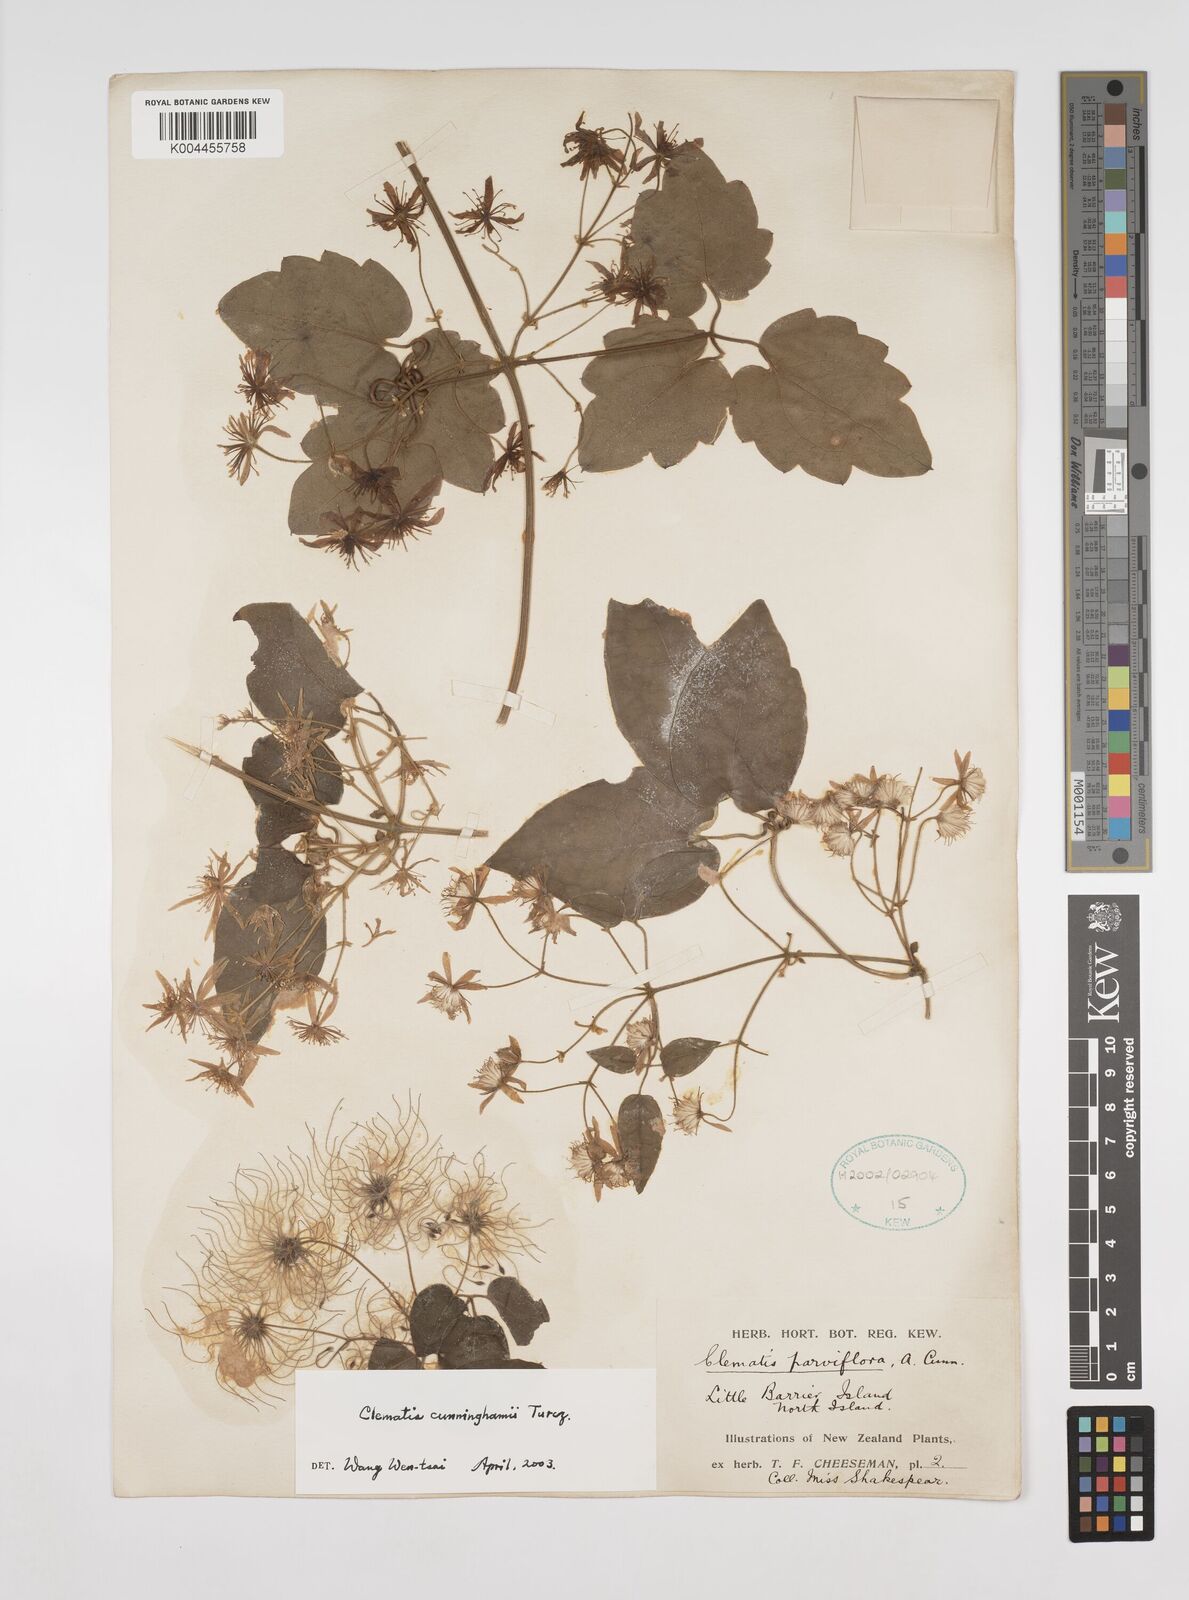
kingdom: Plantae
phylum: Tracheophyta
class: Magnoliopsida
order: Ranunculales
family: Ranunculaceae
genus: Clematis
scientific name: Clematis cunninghamii
